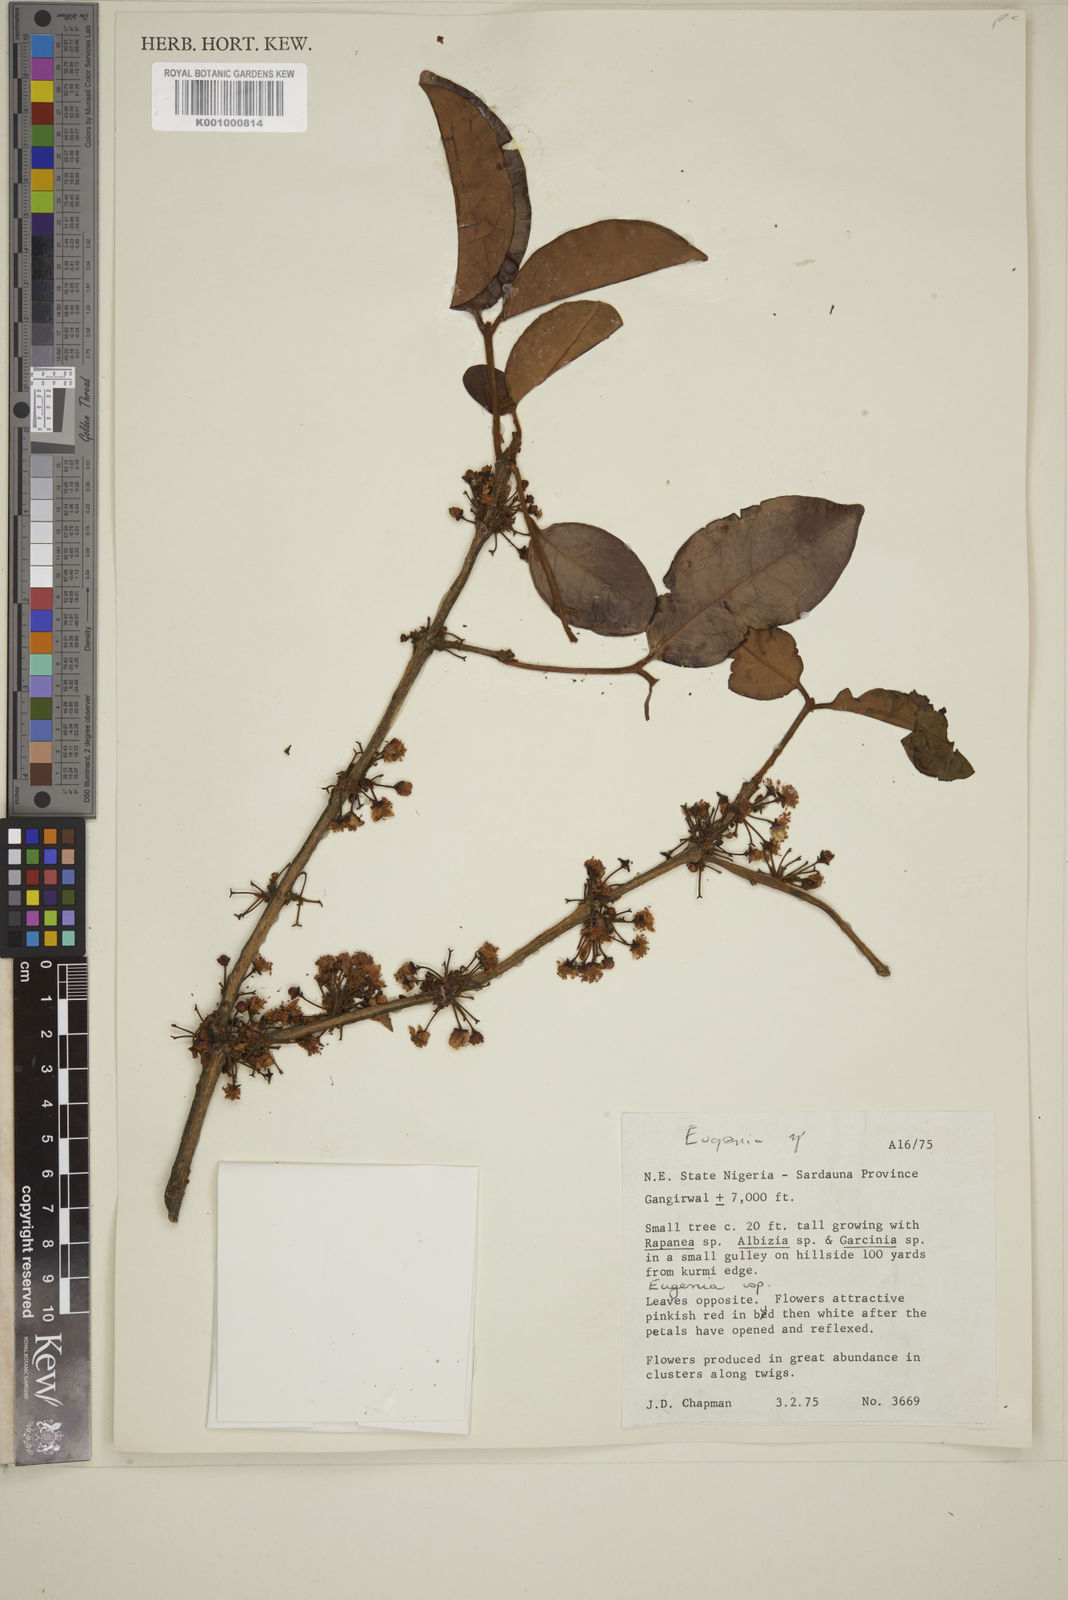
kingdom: Plantae
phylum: Tracheophyta
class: Magnoliopsida
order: Myrtales
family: Myrtaceae
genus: Eugenia
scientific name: Eugenia
